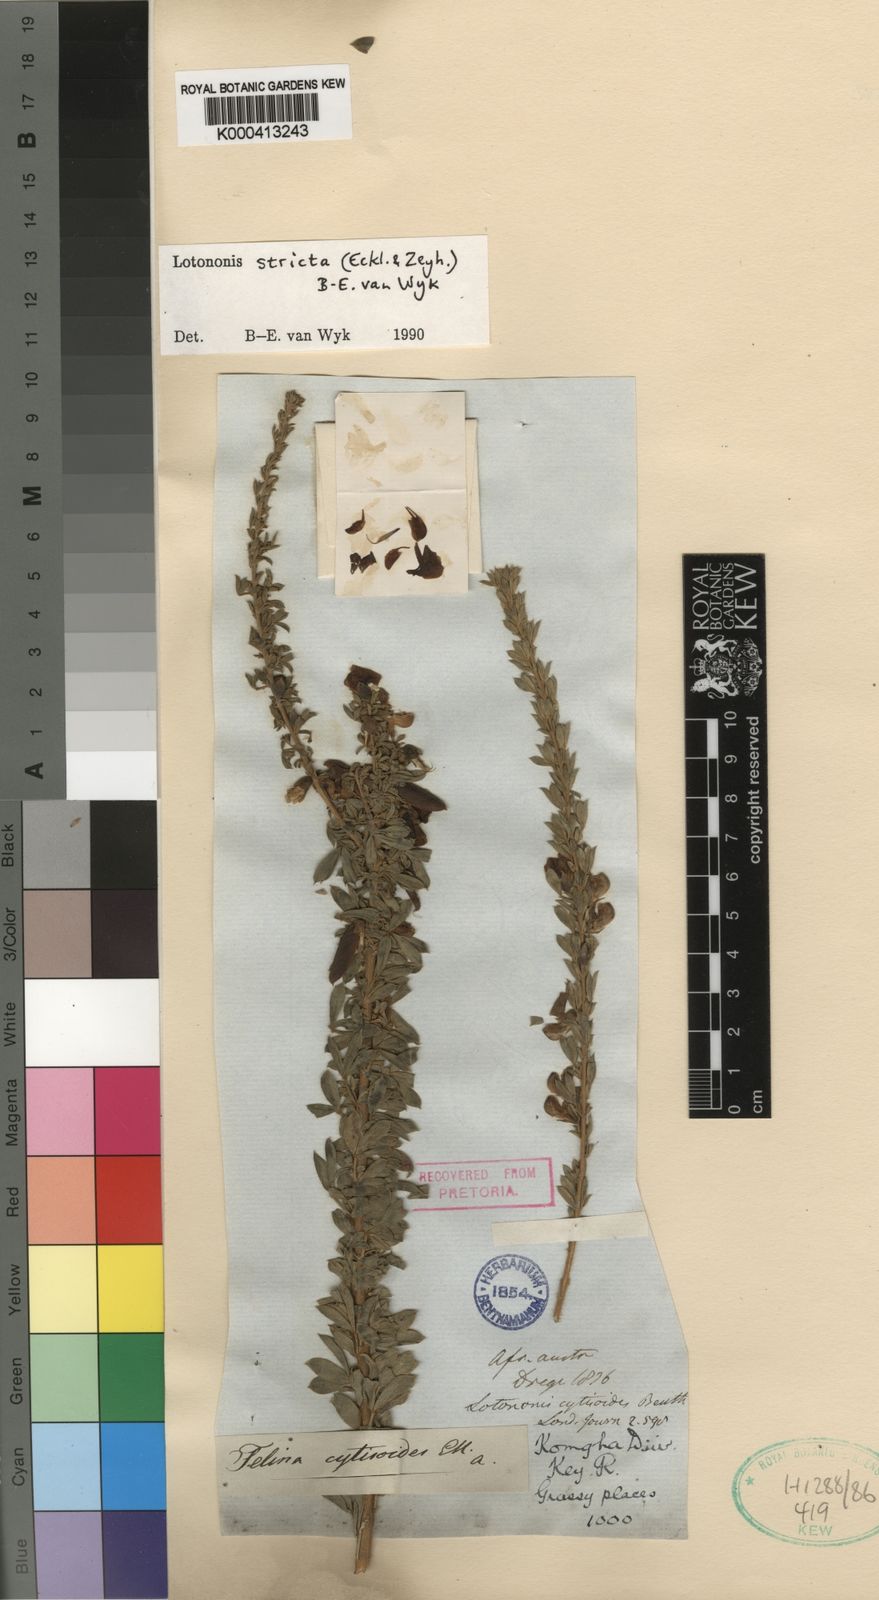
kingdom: Plantae
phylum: Tracheophyta
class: Magnoliopsida
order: Fabales
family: Fabaceae
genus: Lotononis
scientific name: Lotononis stricta
